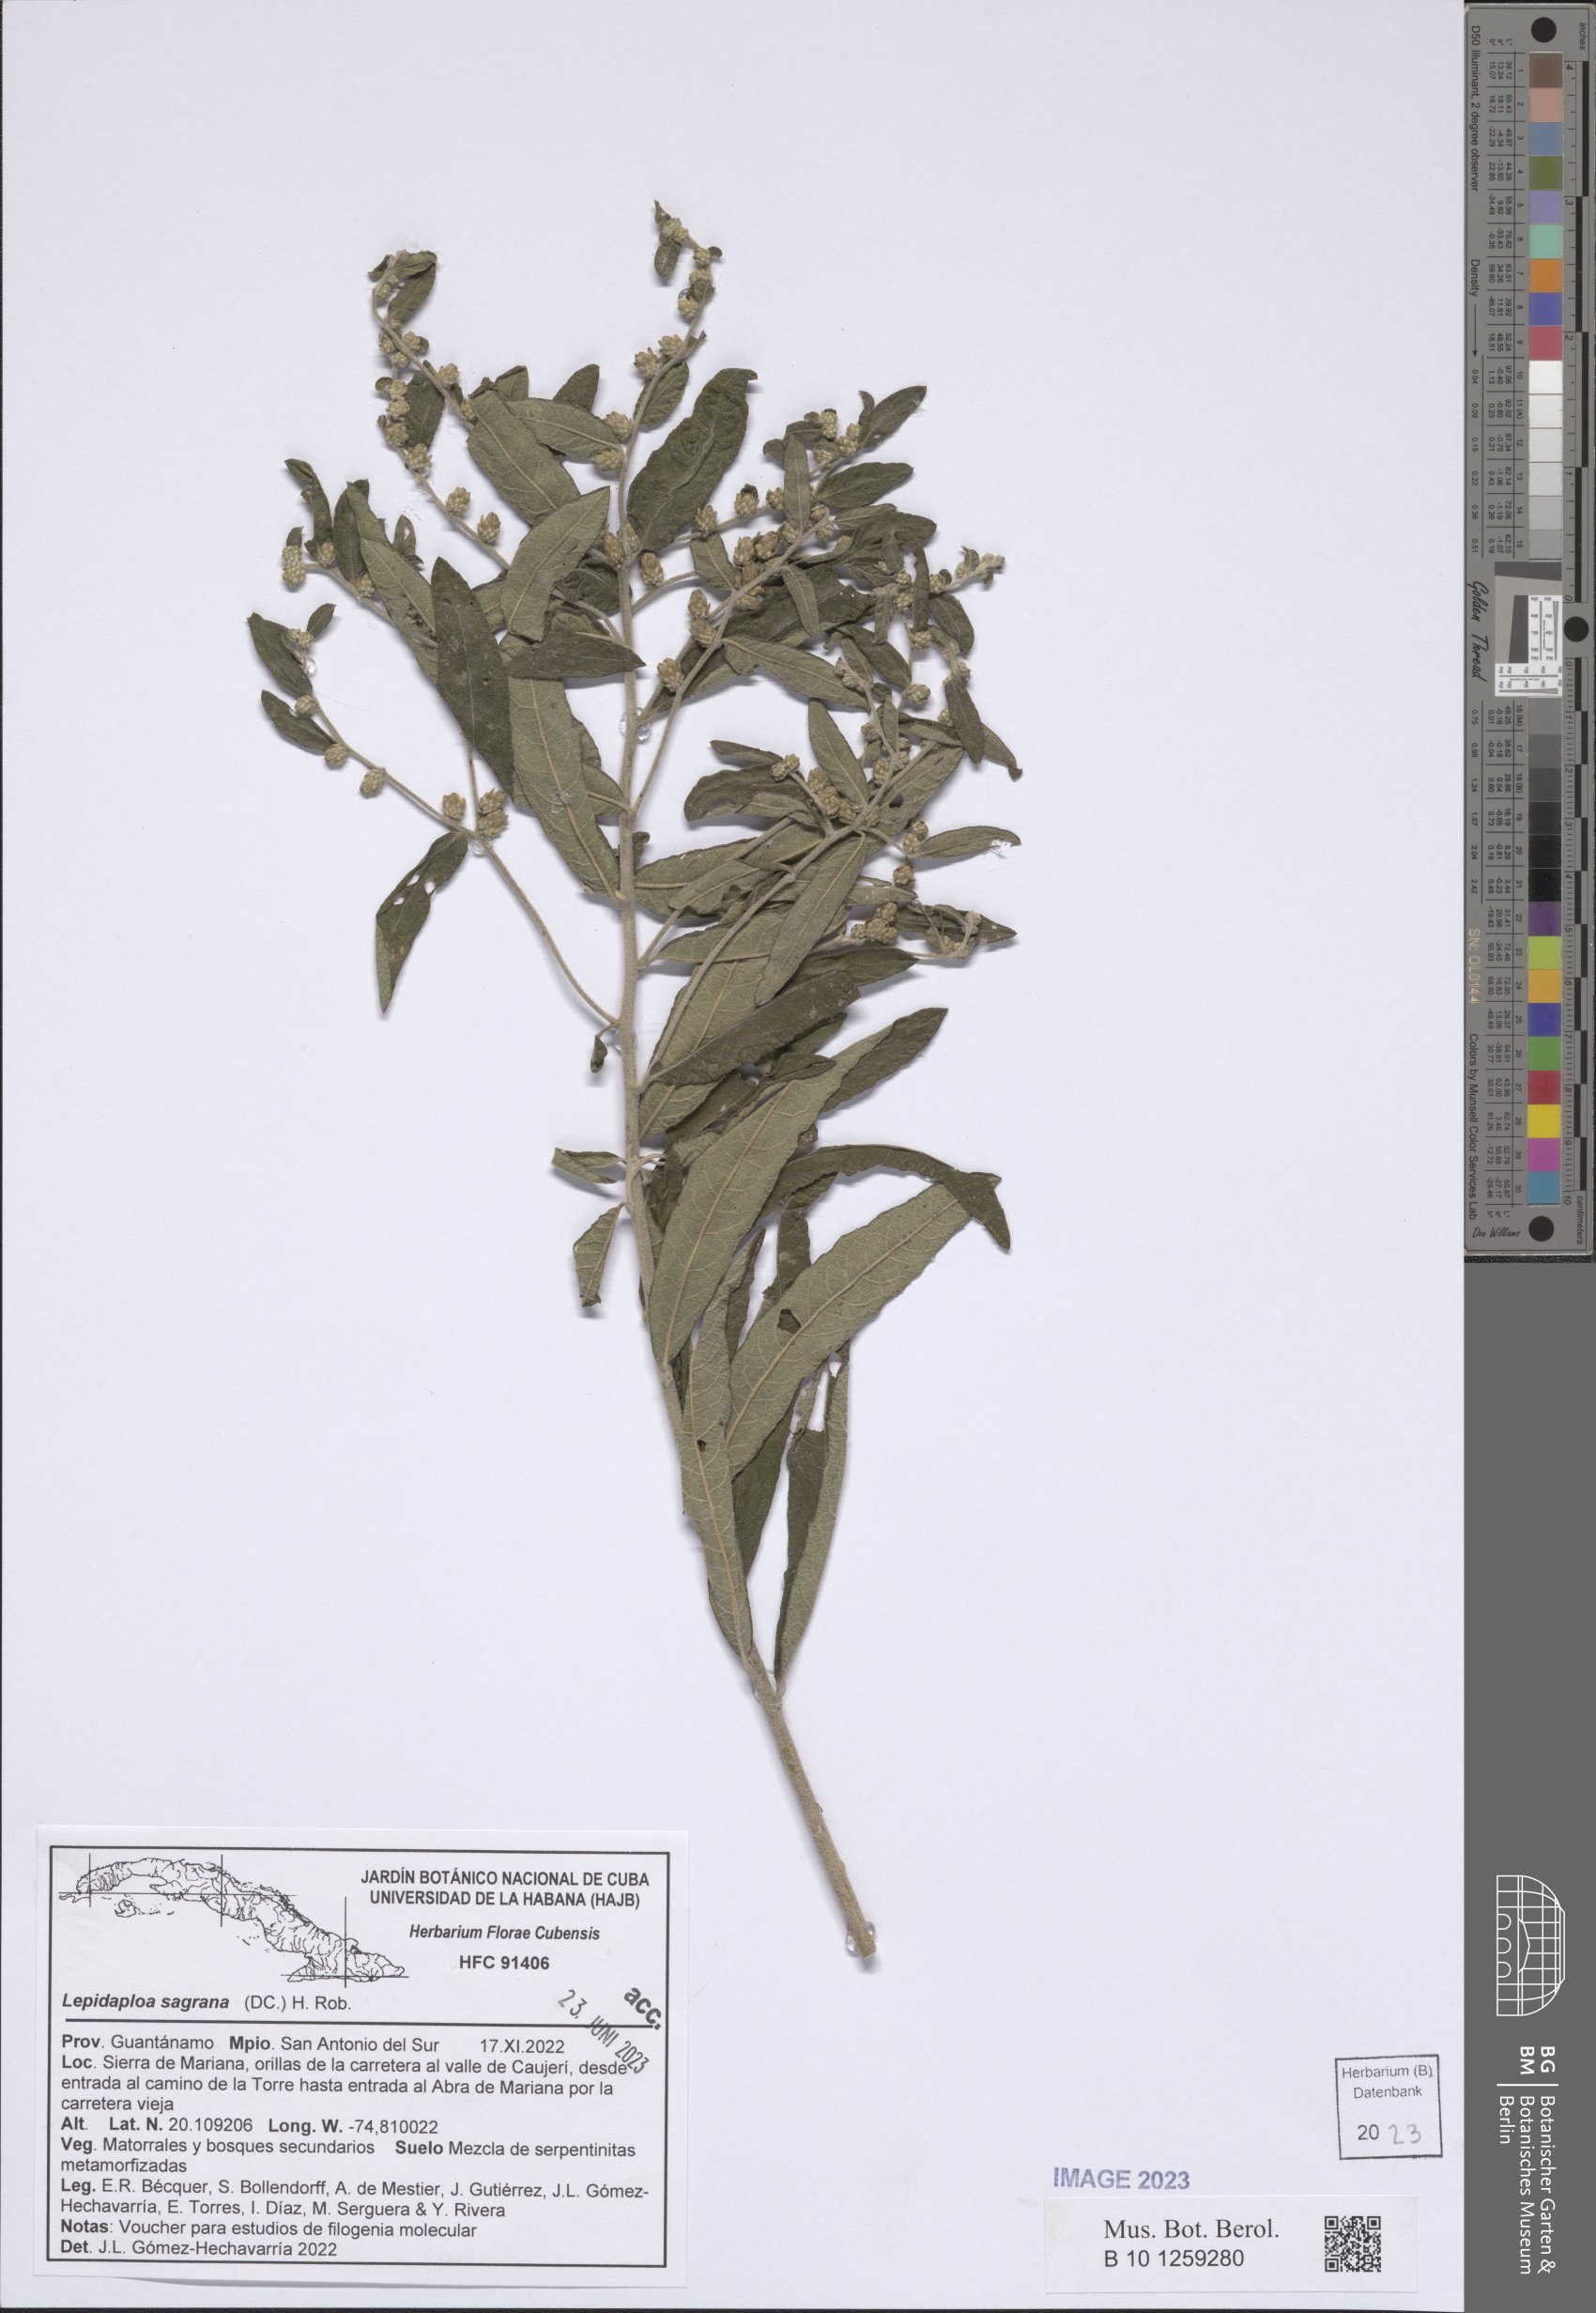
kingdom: Plantae
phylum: Tracheophyta
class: Magnoliopsida
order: Asterales
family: Asteraceae
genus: Lepidaploa
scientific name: Lepidaploa sagraeana
